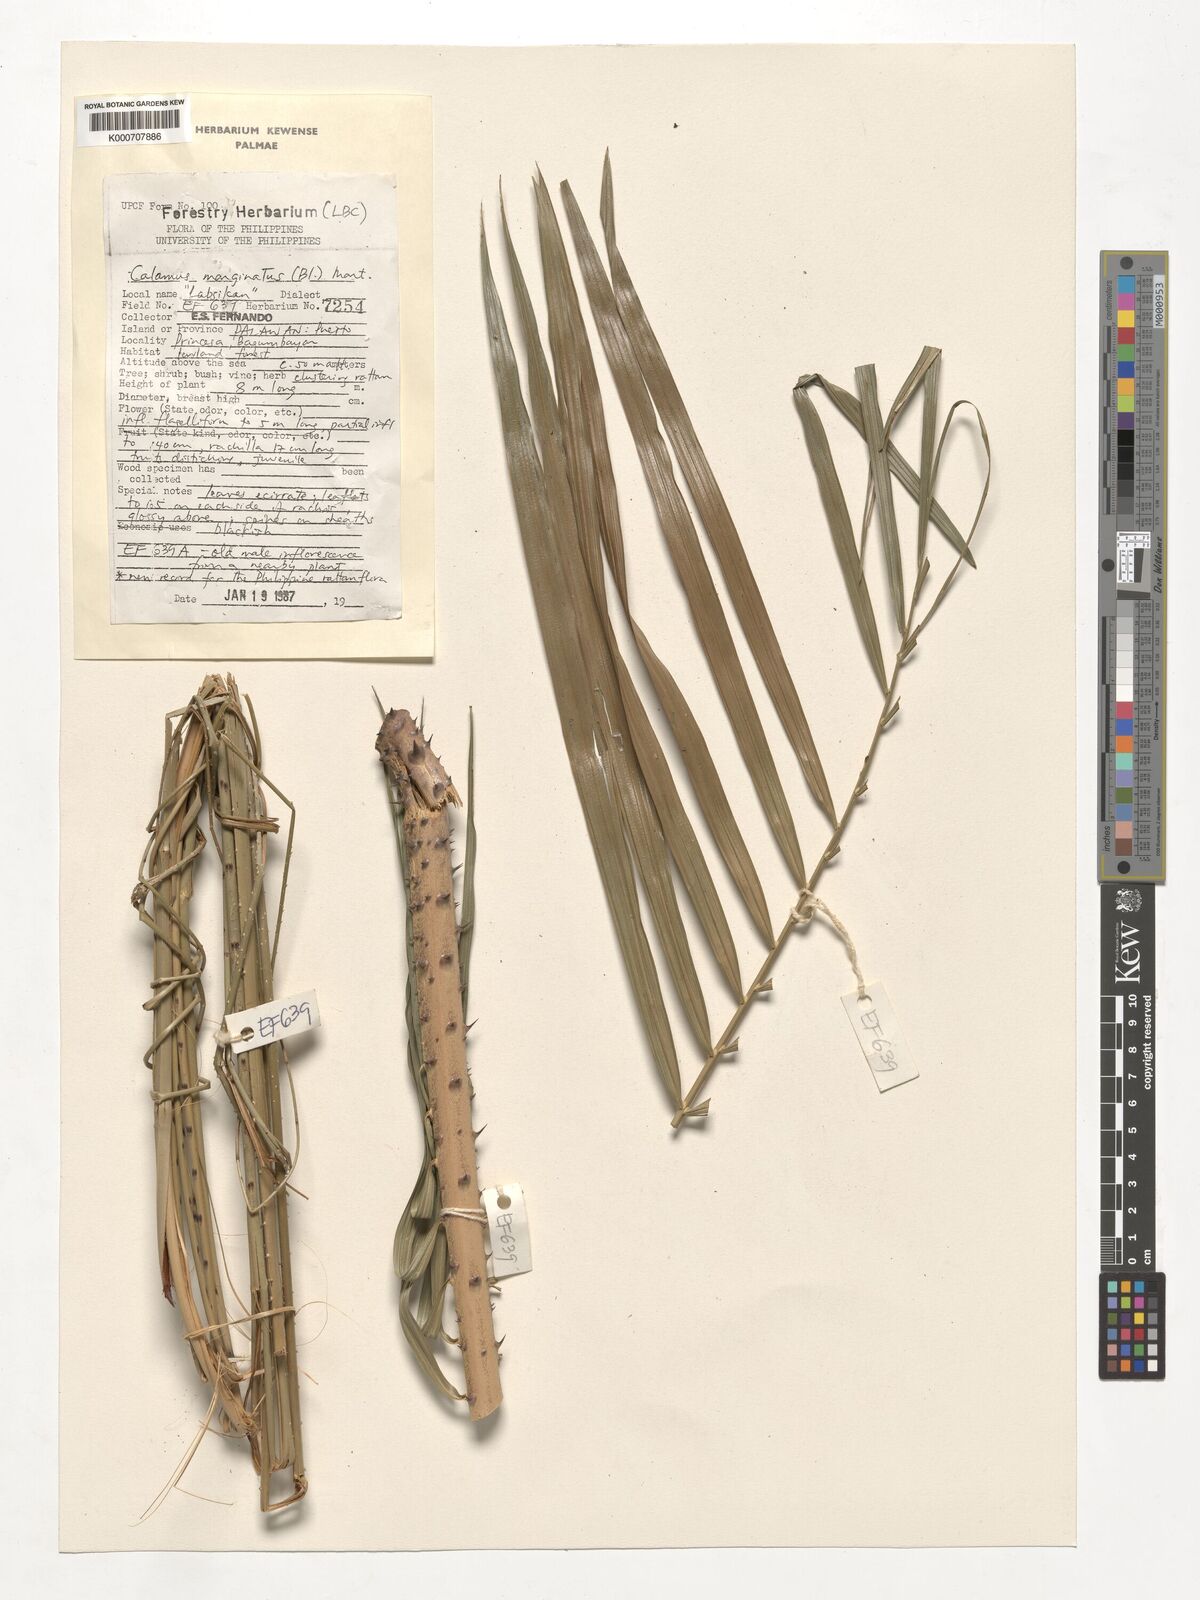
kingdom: Plantae
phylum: Tracheophyta
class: Liliopsida
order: Arecales
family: Arecaceae
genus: Calamus
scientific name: Calamus marginatus
